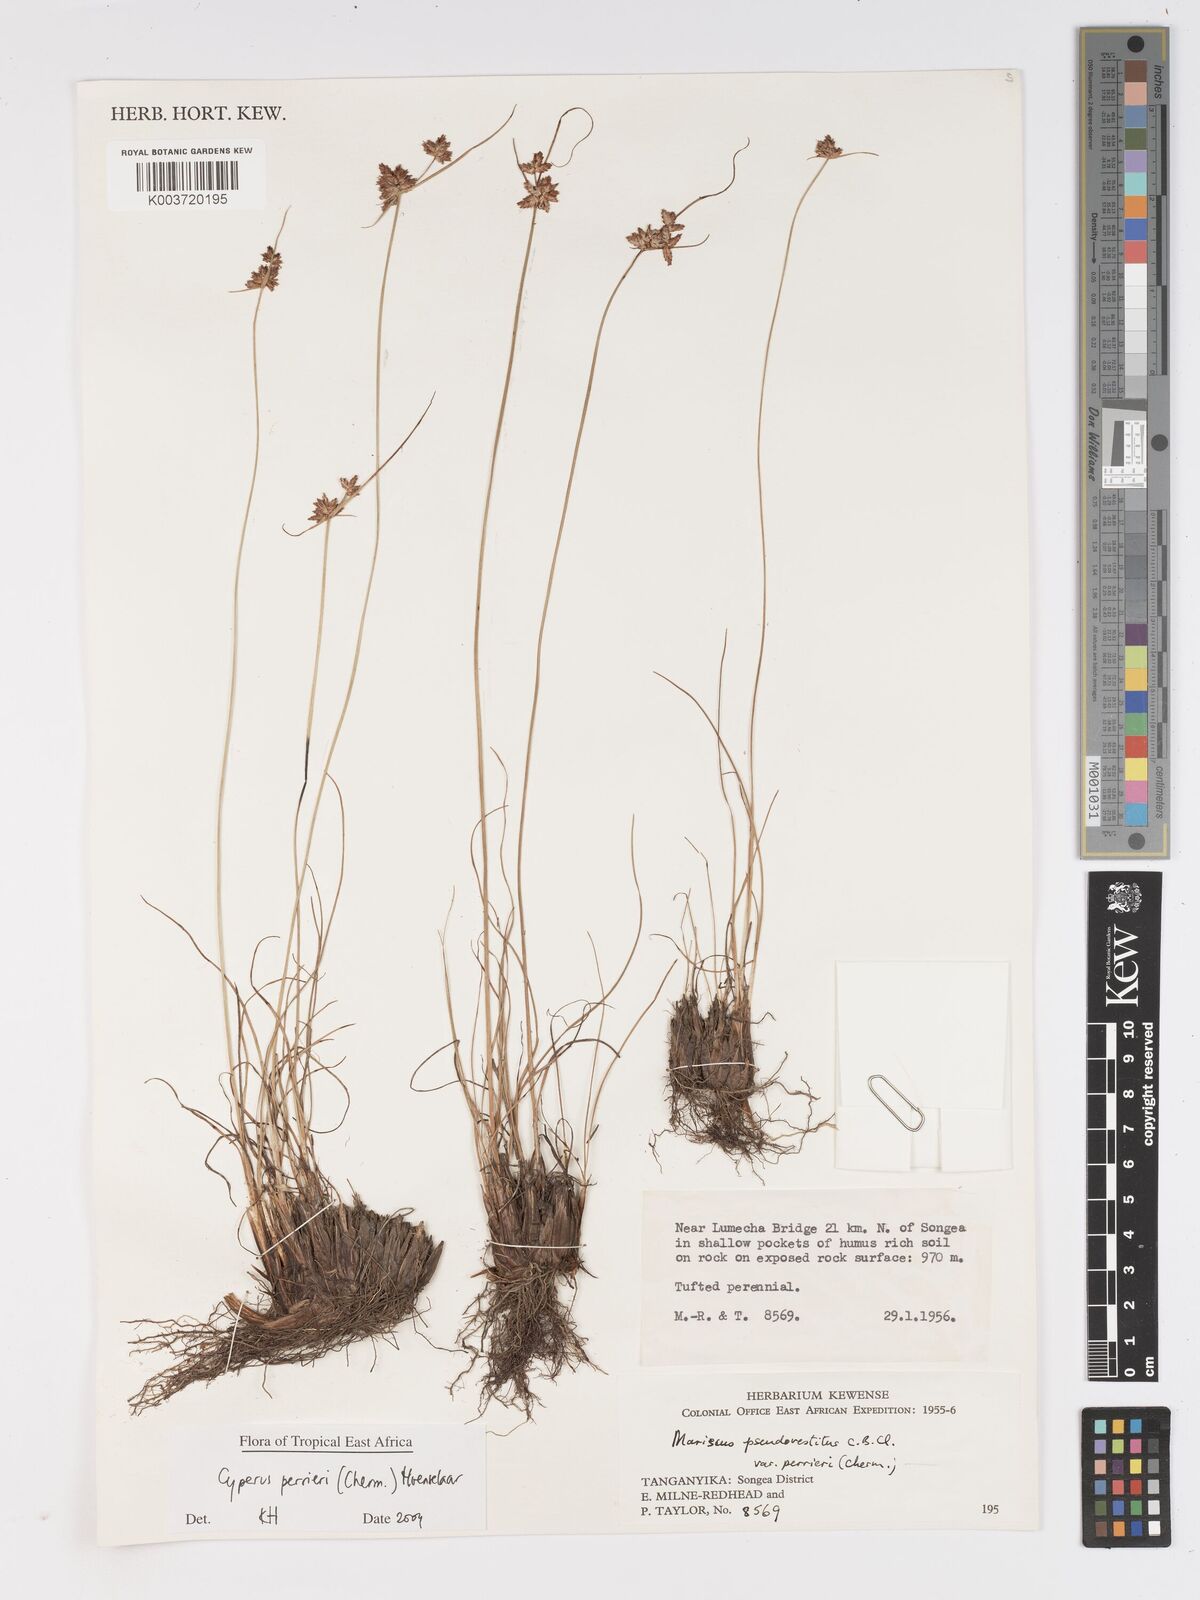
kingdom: Plantae
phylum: Tracheophyta
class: Liliopsida
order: Poales
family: Cyperaceae
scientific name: Cyperaceae
